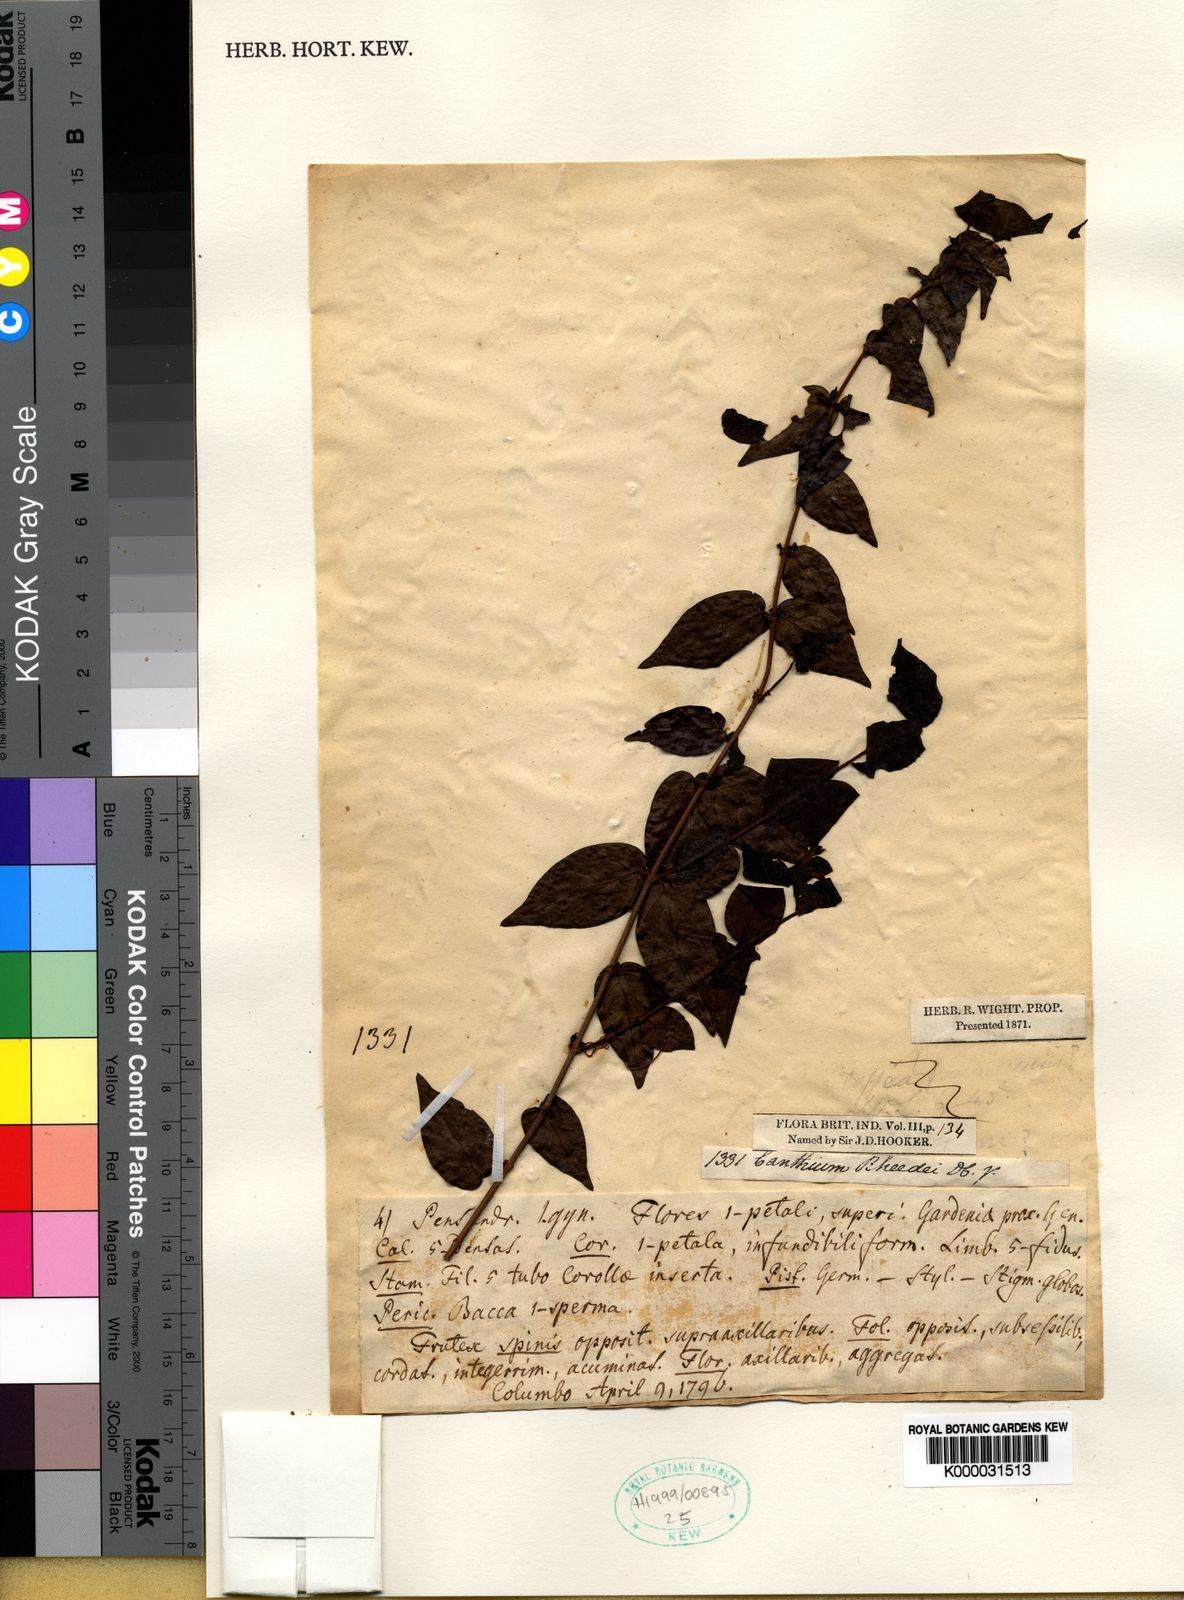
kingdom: Plantae
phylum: Tracheophyta
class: Magnoliopsida
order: Gentianales
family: Rubiaceae
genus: Canthium
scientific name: Canthium rheedei
